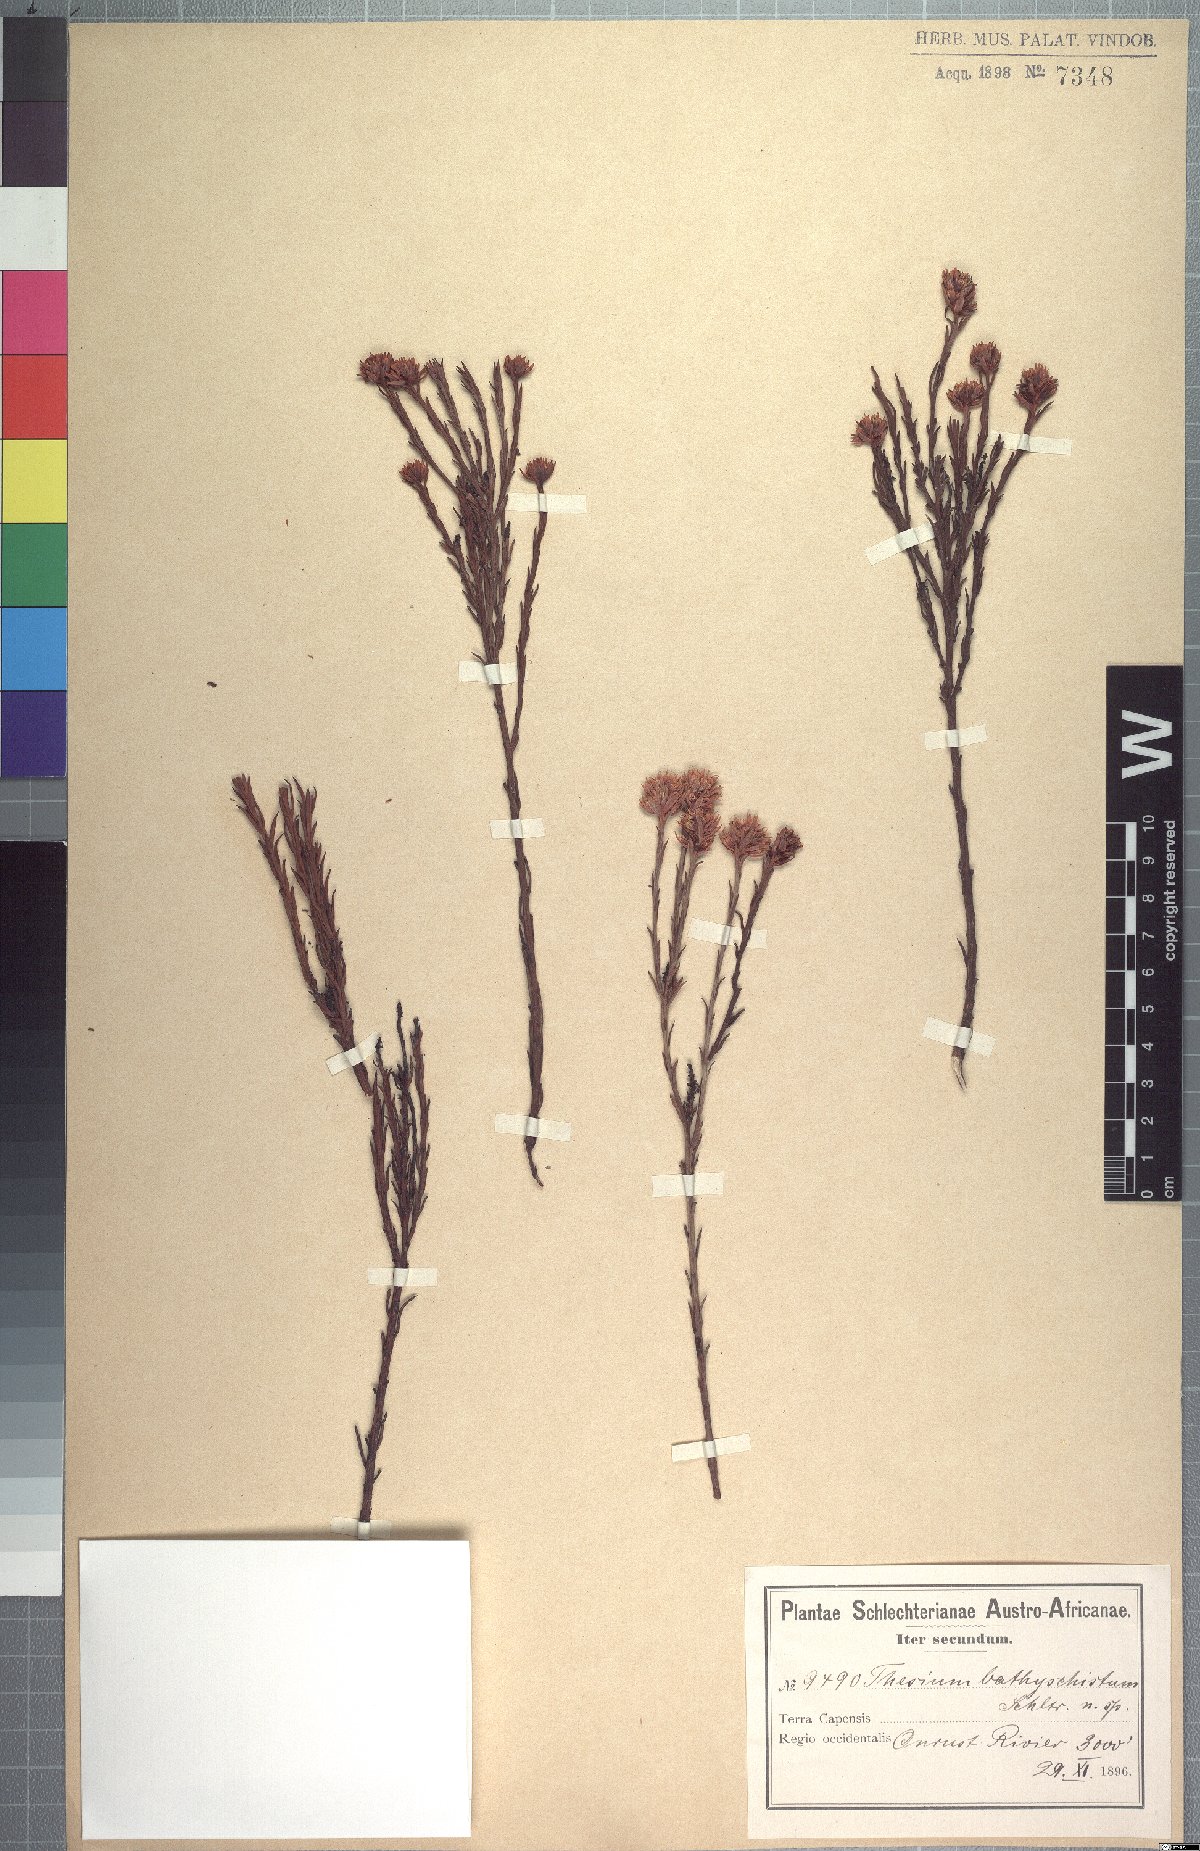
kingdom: Plantae
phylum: Tracheophyta
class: Magnoliopsida
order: Santalales
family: Thesiaceae
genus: Thesium
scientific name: Thesium bathyschistum
